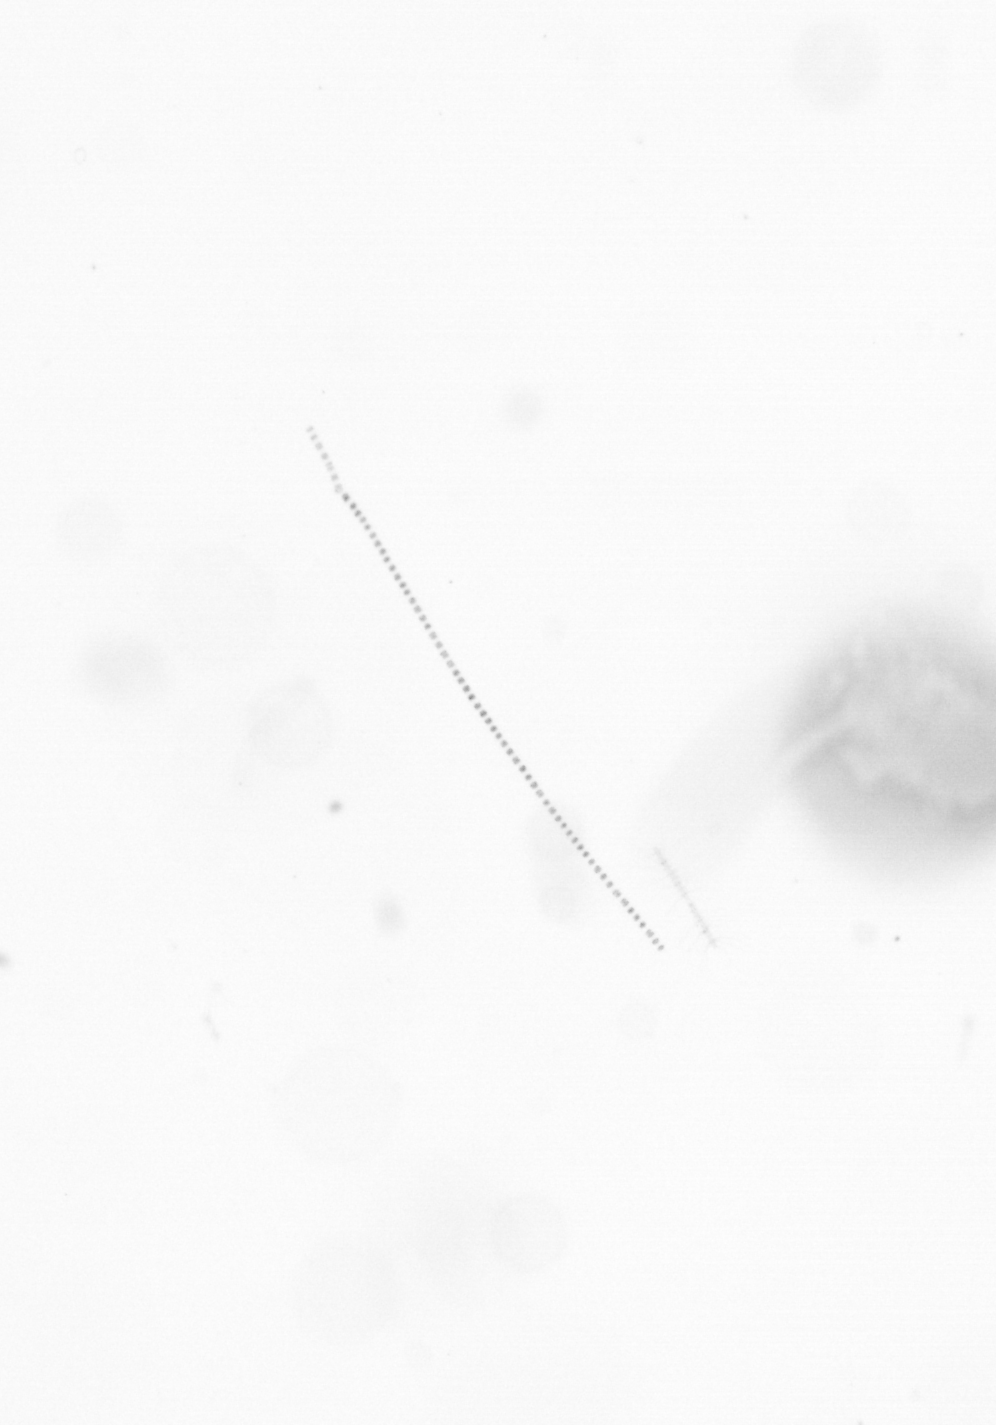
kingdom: Chromista
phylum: Ochrophyta
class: Bacillariophyceae
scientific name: Bacillariophyceae
